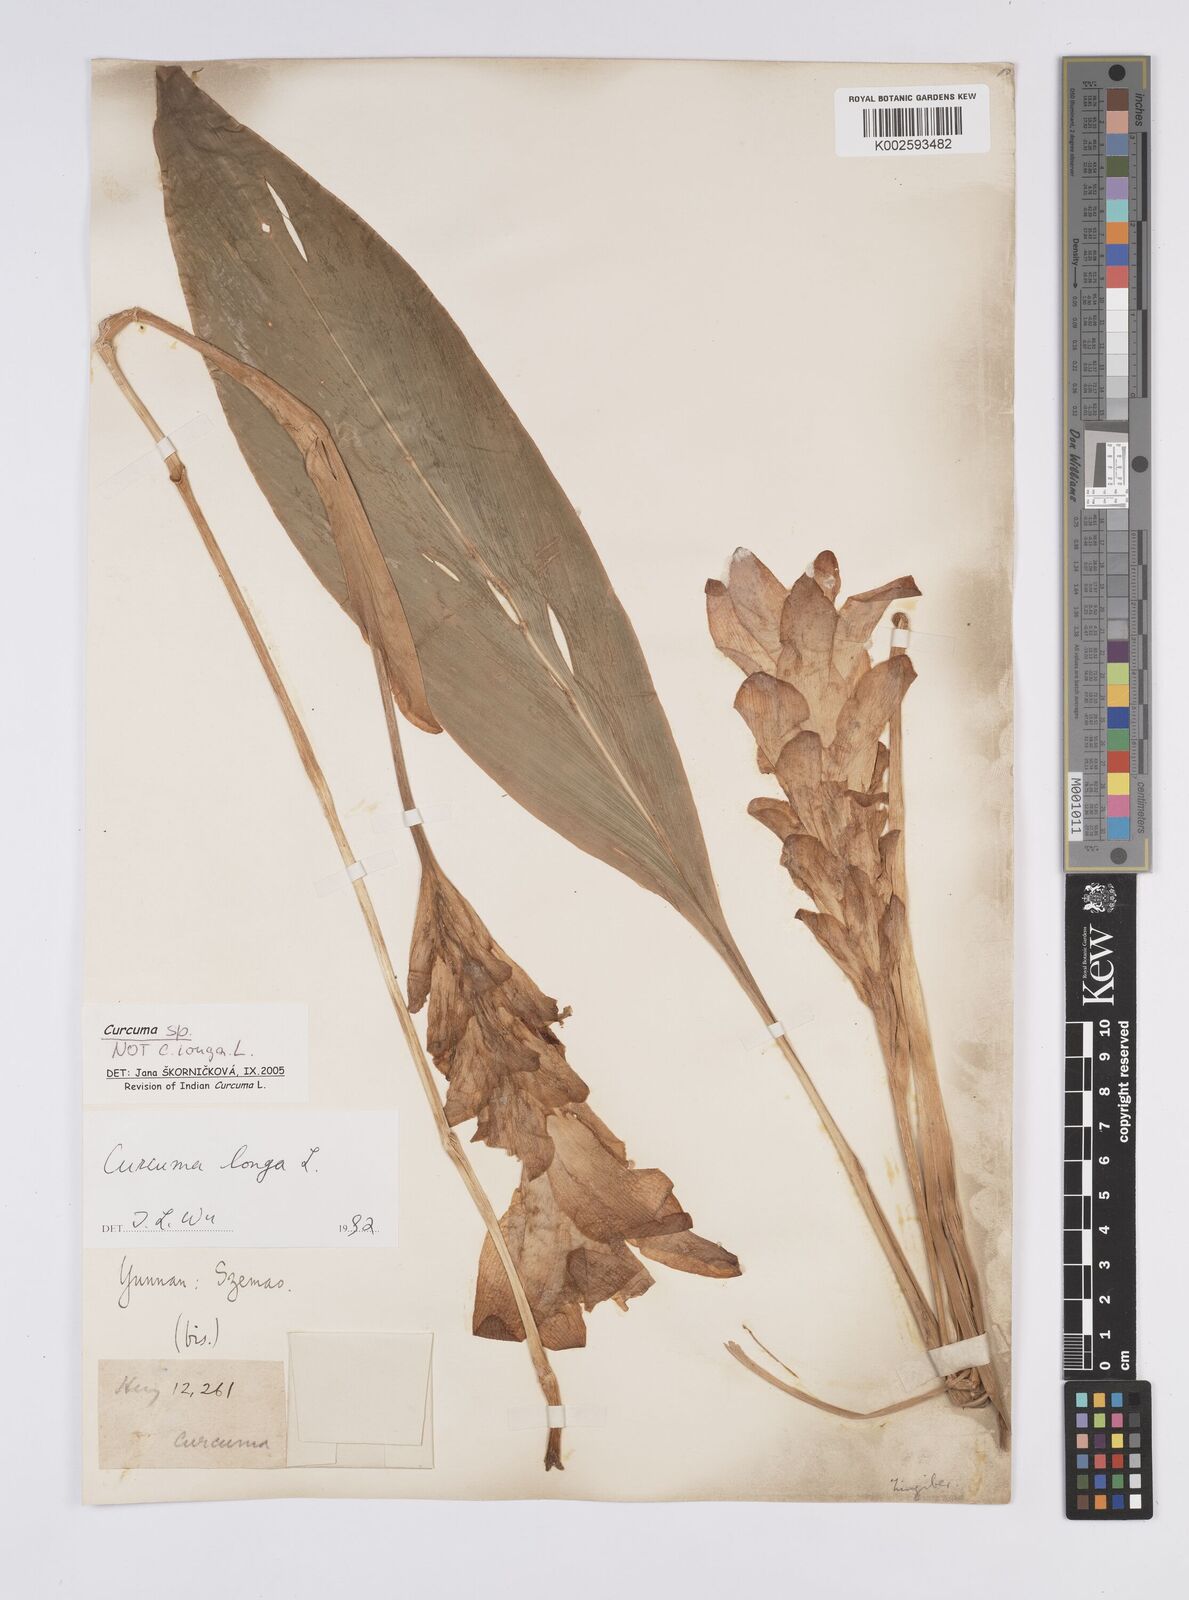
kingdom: Plantae
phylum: Tracheophyta
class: Liliopsida
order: Zingiberales
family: Zingiberaceae
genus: Curcuma
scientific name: Curcuma
